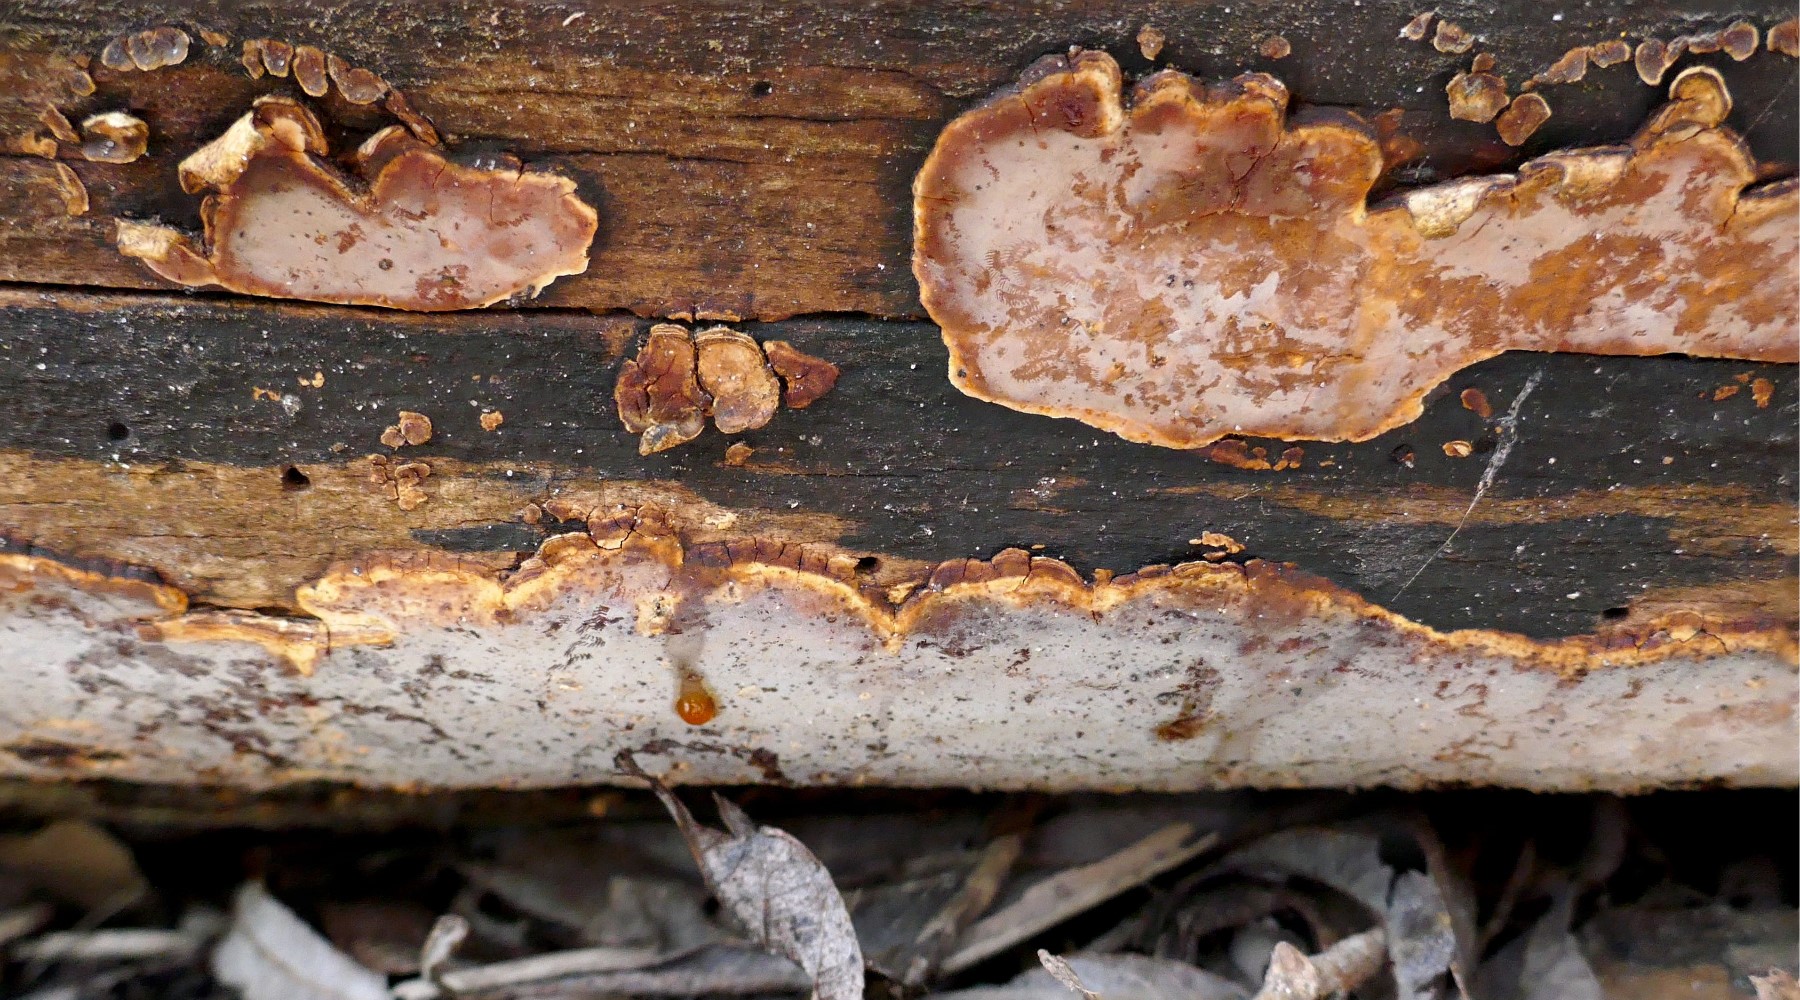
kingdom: Fungi
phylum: Basidiomycota
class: Agaricomycetes
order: Russulales
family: Peniophoraceae
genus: Scytinostroma
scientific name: Scytinostroma hemidichophyticum
